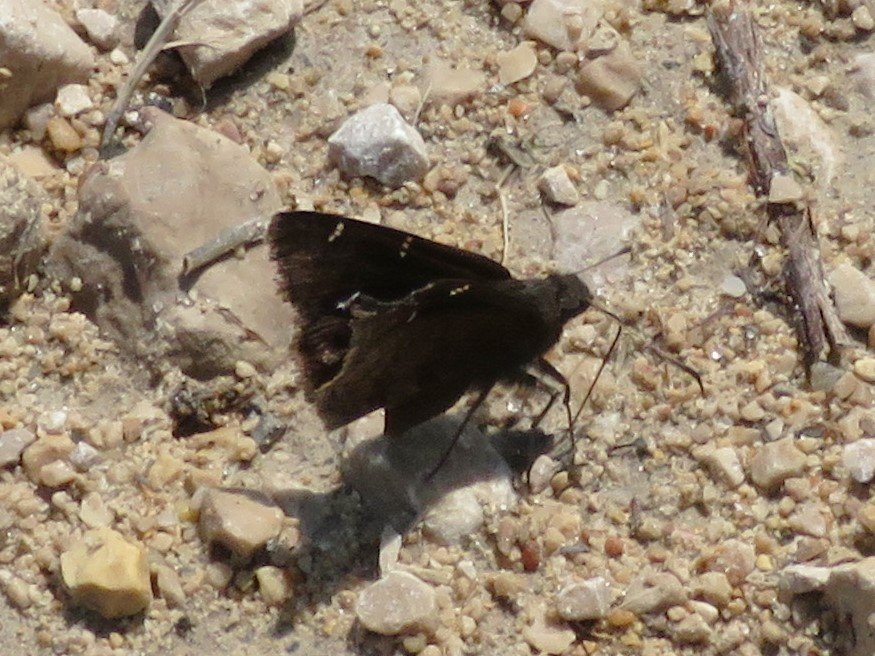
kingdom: Animalia
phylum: Arthropoda
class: Insecta
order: Lepidoptera
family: Hesperiidae
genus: Autochton
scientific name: Autochton
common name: Northern Cloudywing
